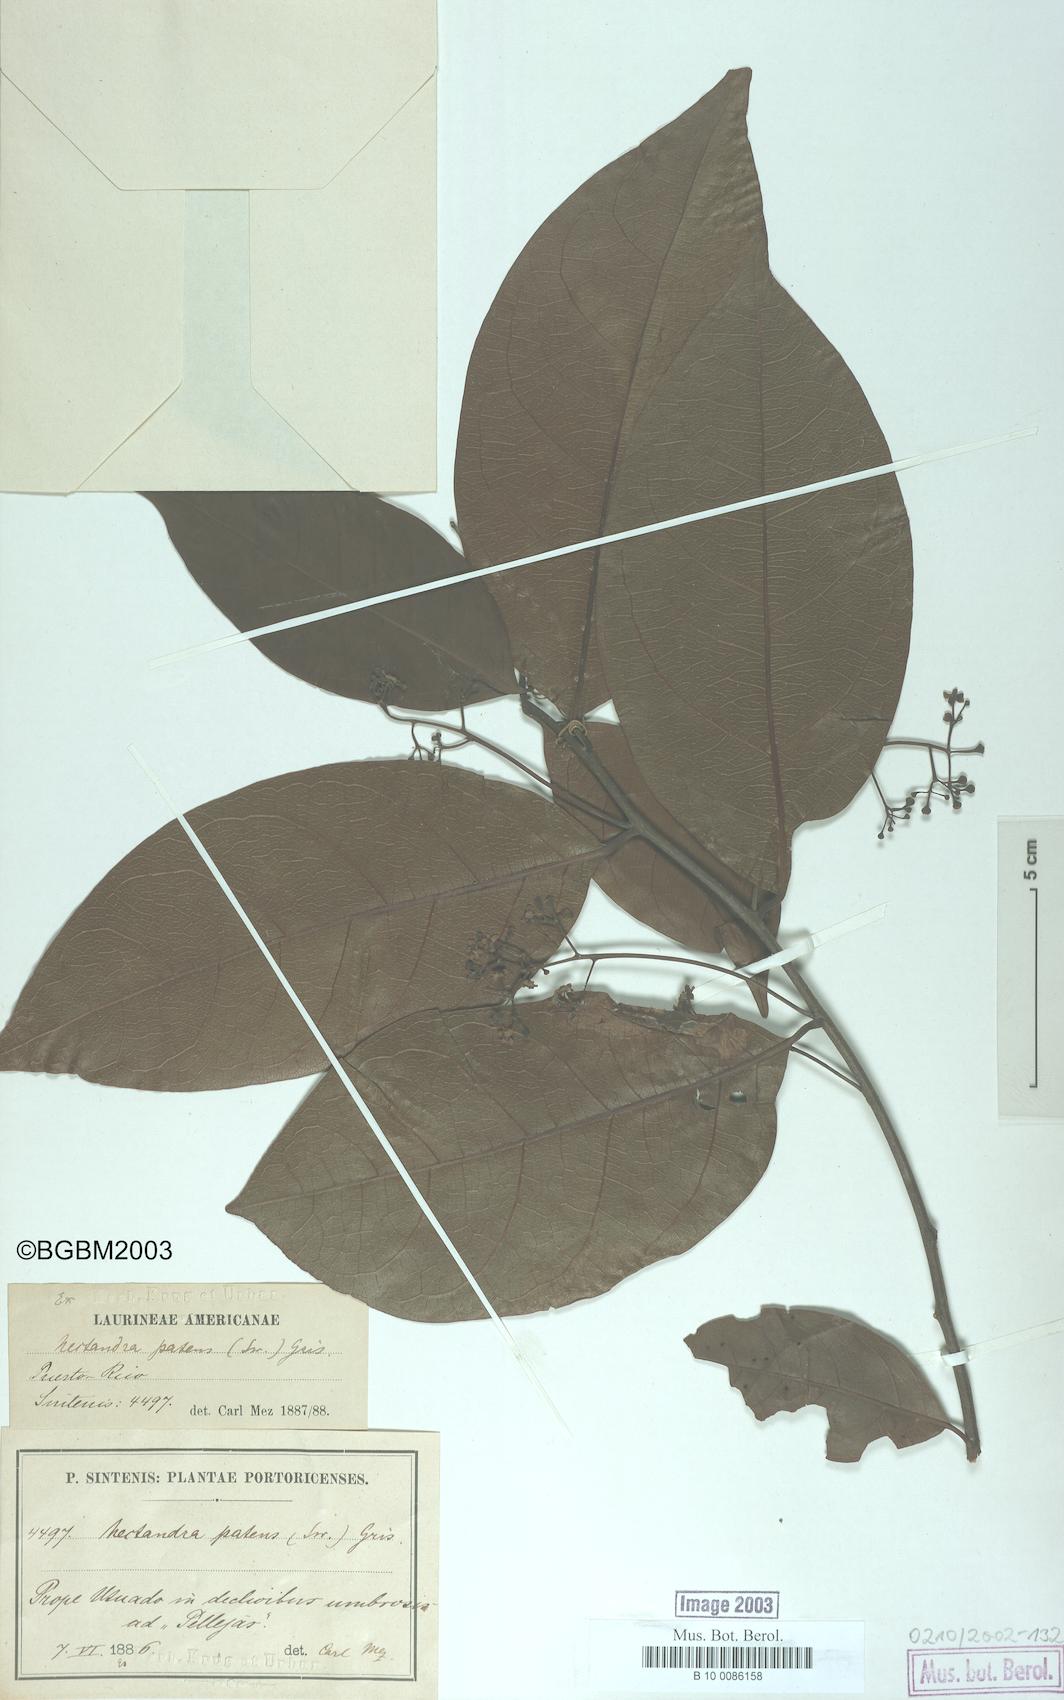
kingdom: Plantae
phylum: Tracheophyta
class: Magnoliopsida
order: Laurales
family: Lauraceae
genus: Damburneya
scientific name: Damburneya patens
